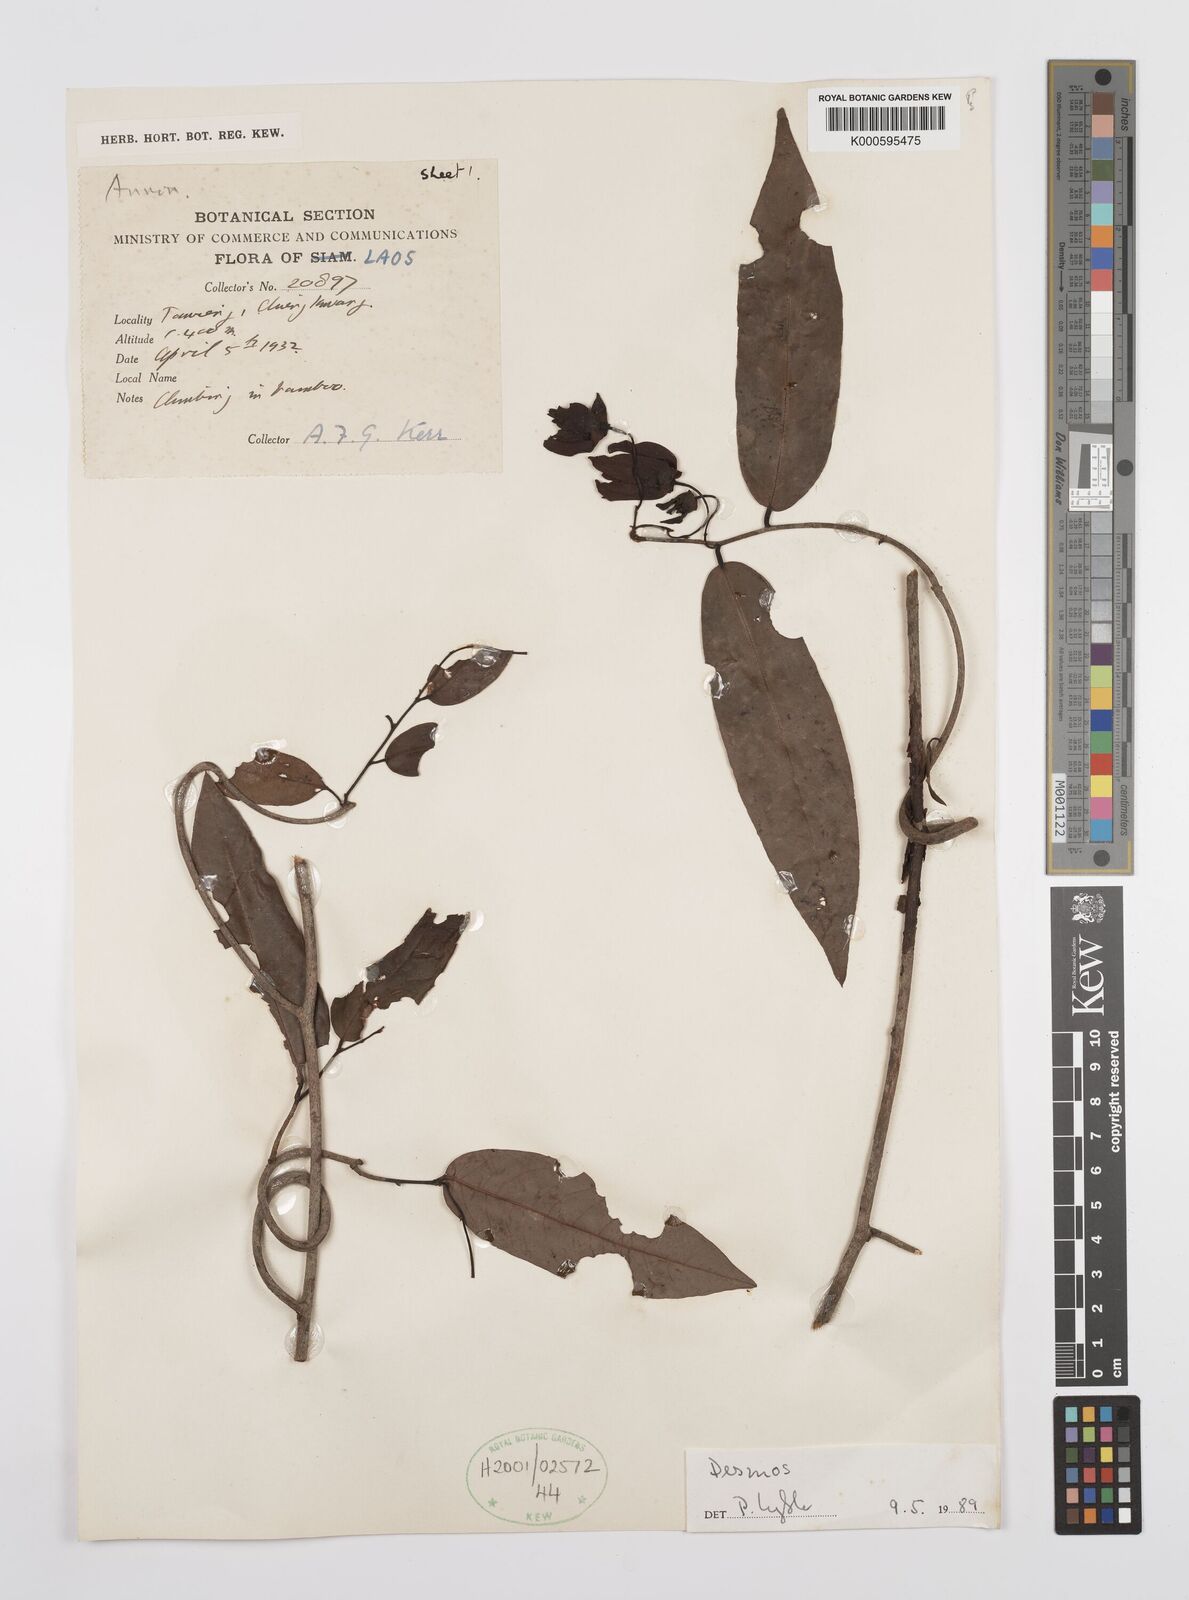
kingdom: Plantae
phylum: Tracheophyta
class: Magnoliopsida
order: Magnoliales
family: Annonaceae
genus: Desmos
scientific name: Desmos
